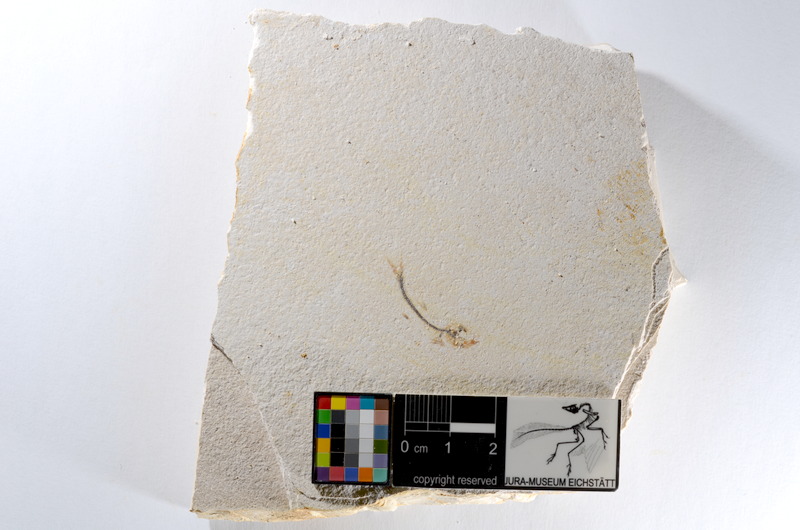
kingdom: Animalia
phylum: Chordata
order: Salmoniformes
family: Orthogonikleithridae
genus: Orthogonikleithrus
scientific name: Orthogonikleithrus hoelli
